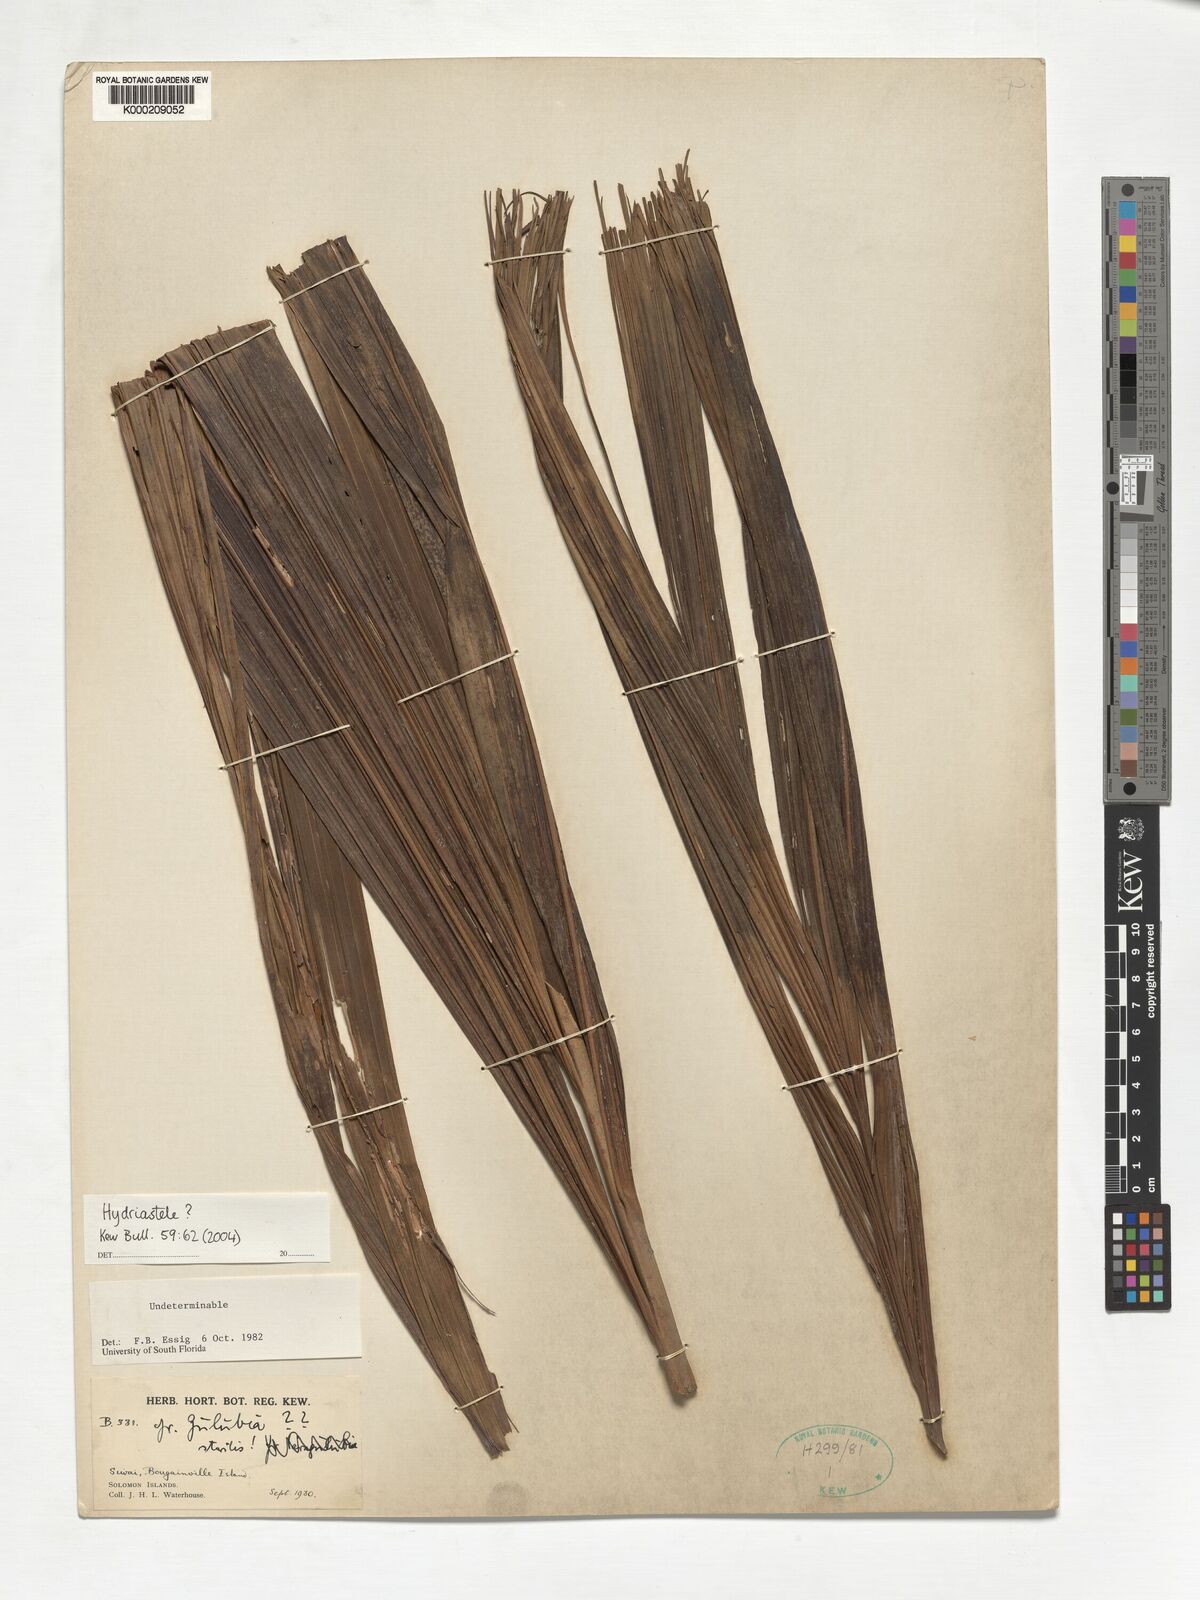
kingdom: Plantae
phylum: Tracheophyta
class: Liliopsida
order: Arecales
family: Arecaceae
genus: Hydriastele
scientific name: Hydriastele
